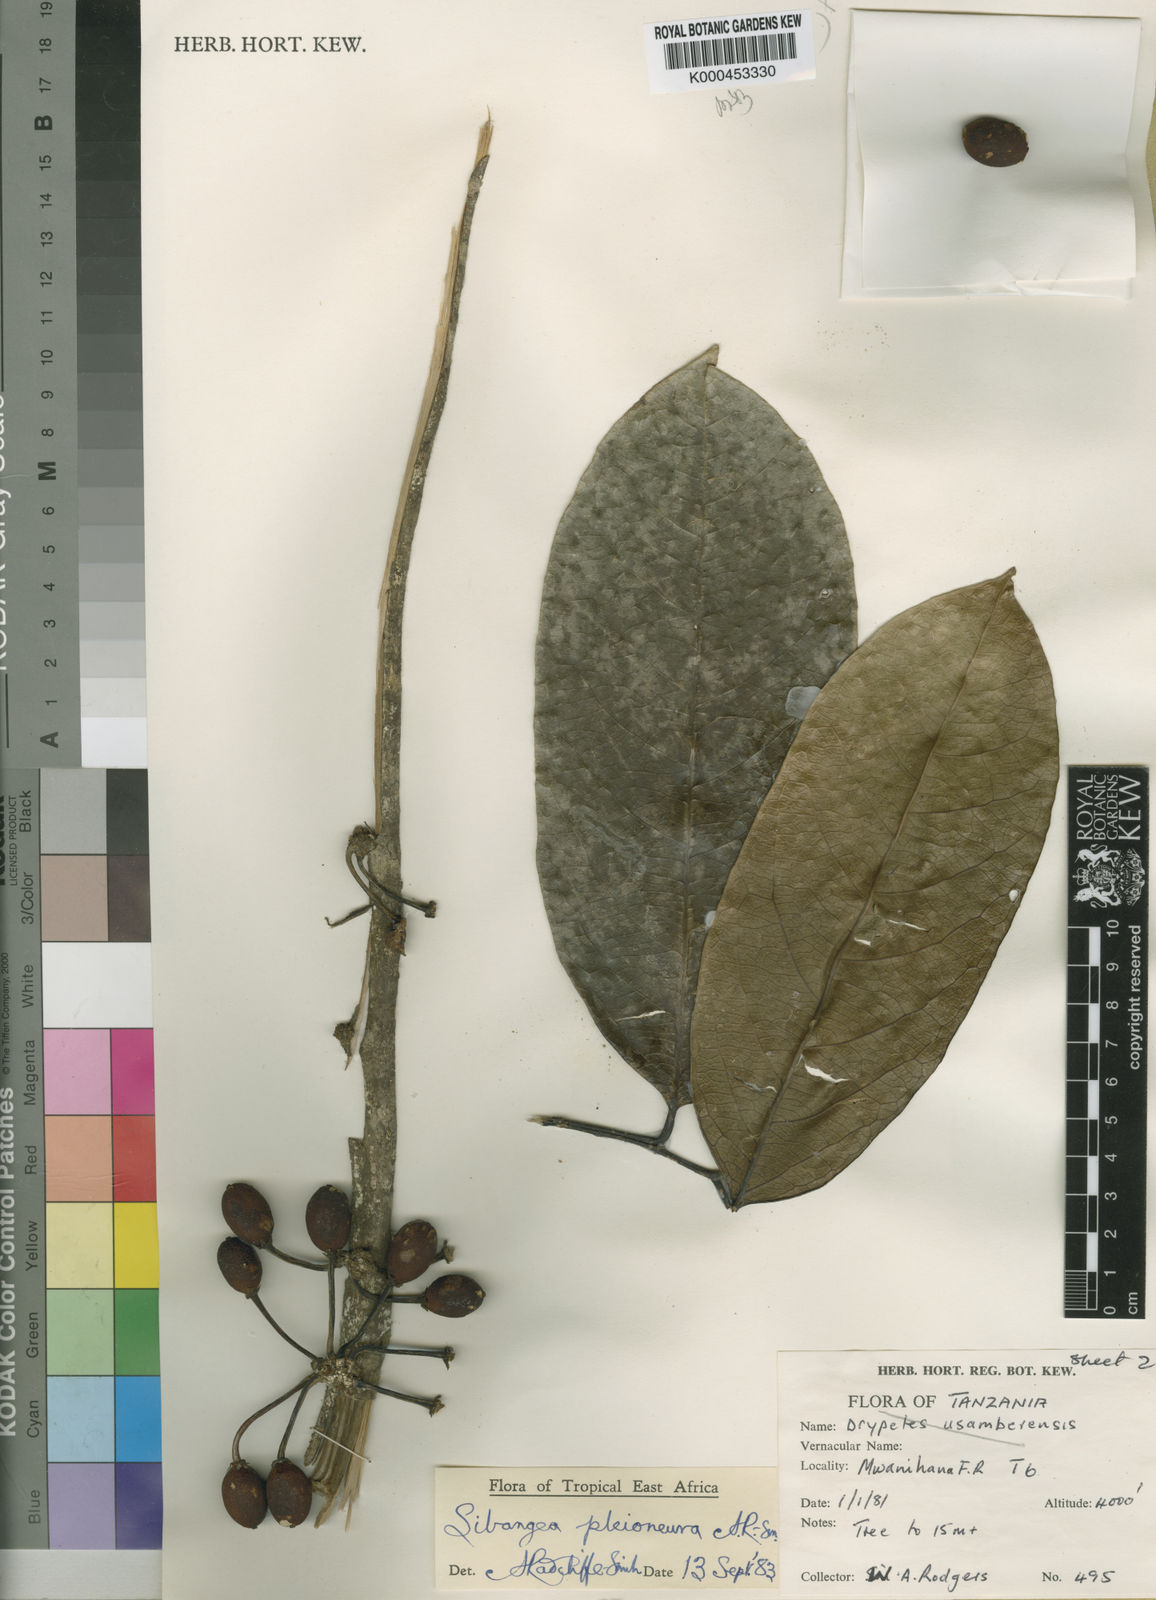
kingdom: Plantae
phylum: Tracheophyta
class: Magnoliopsida
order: Malpighiales
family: Putranjivaceae
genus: Drypetes
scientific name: Drypetes
